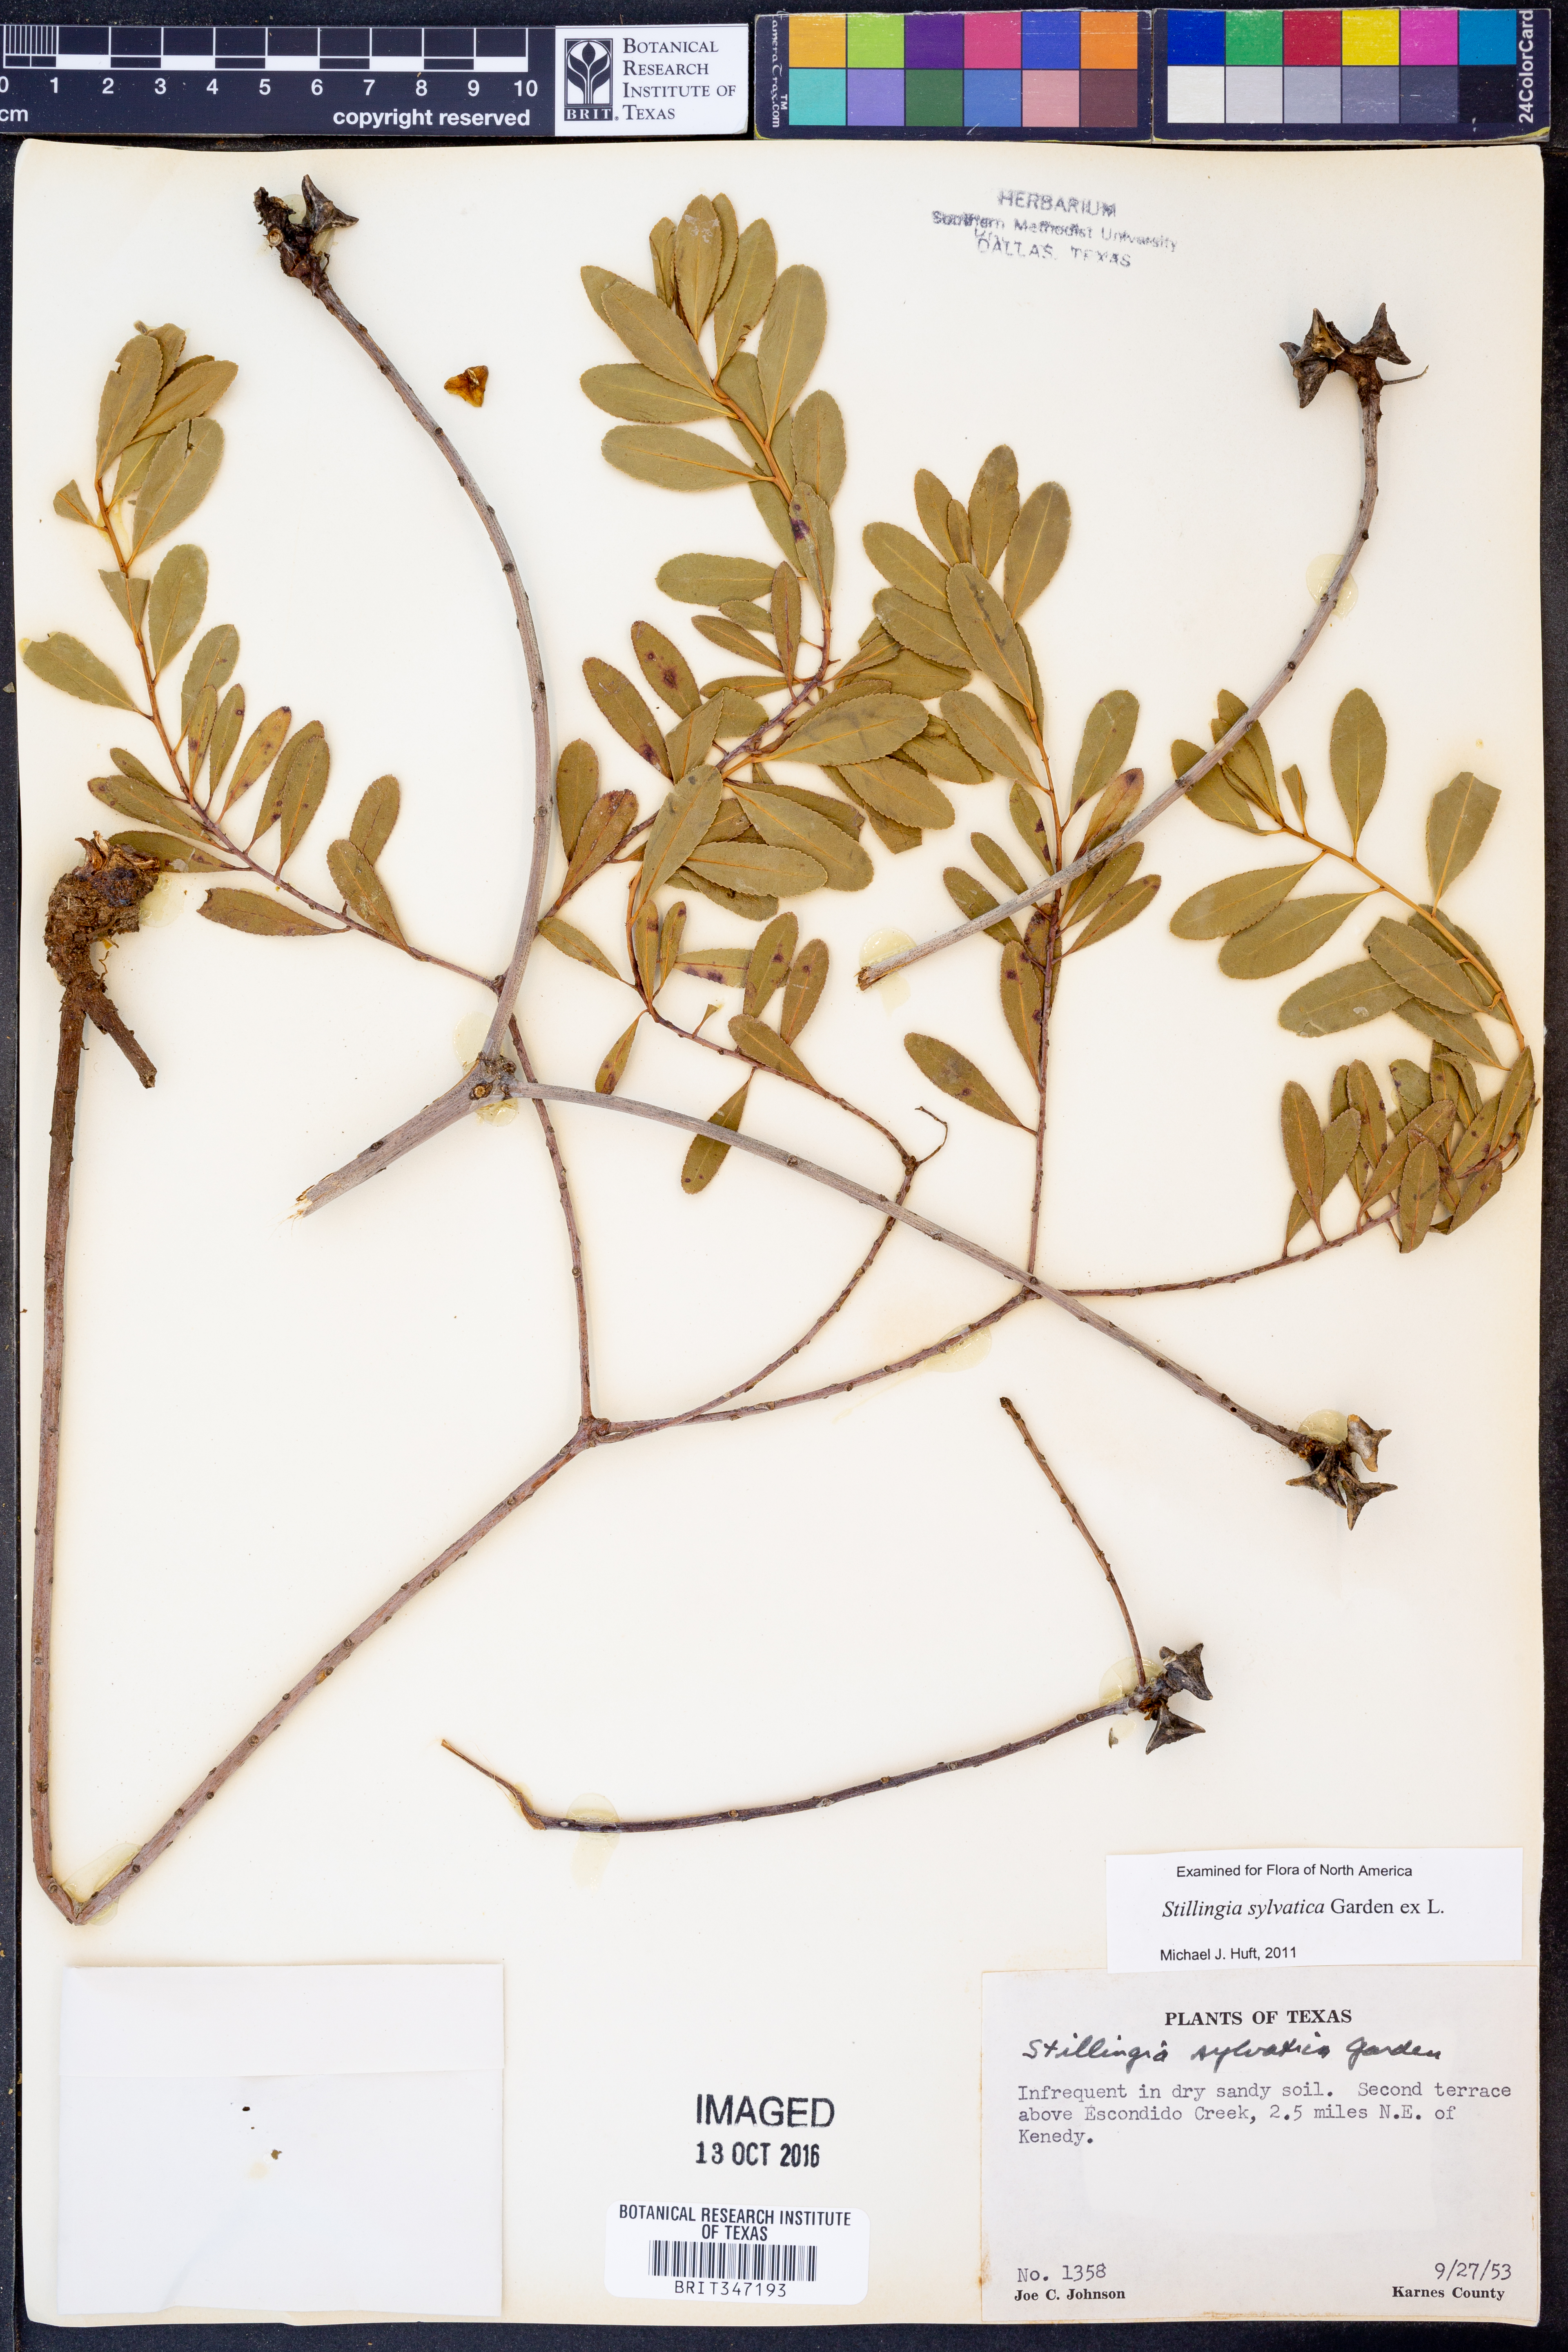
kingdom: Plantae
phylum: Tracheophyta
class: Magnoliopsida
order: Malpighiales
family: Euphorbiaceae
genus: Stillingia
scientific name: Stillingia sylvatica
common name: Queen's-delight
